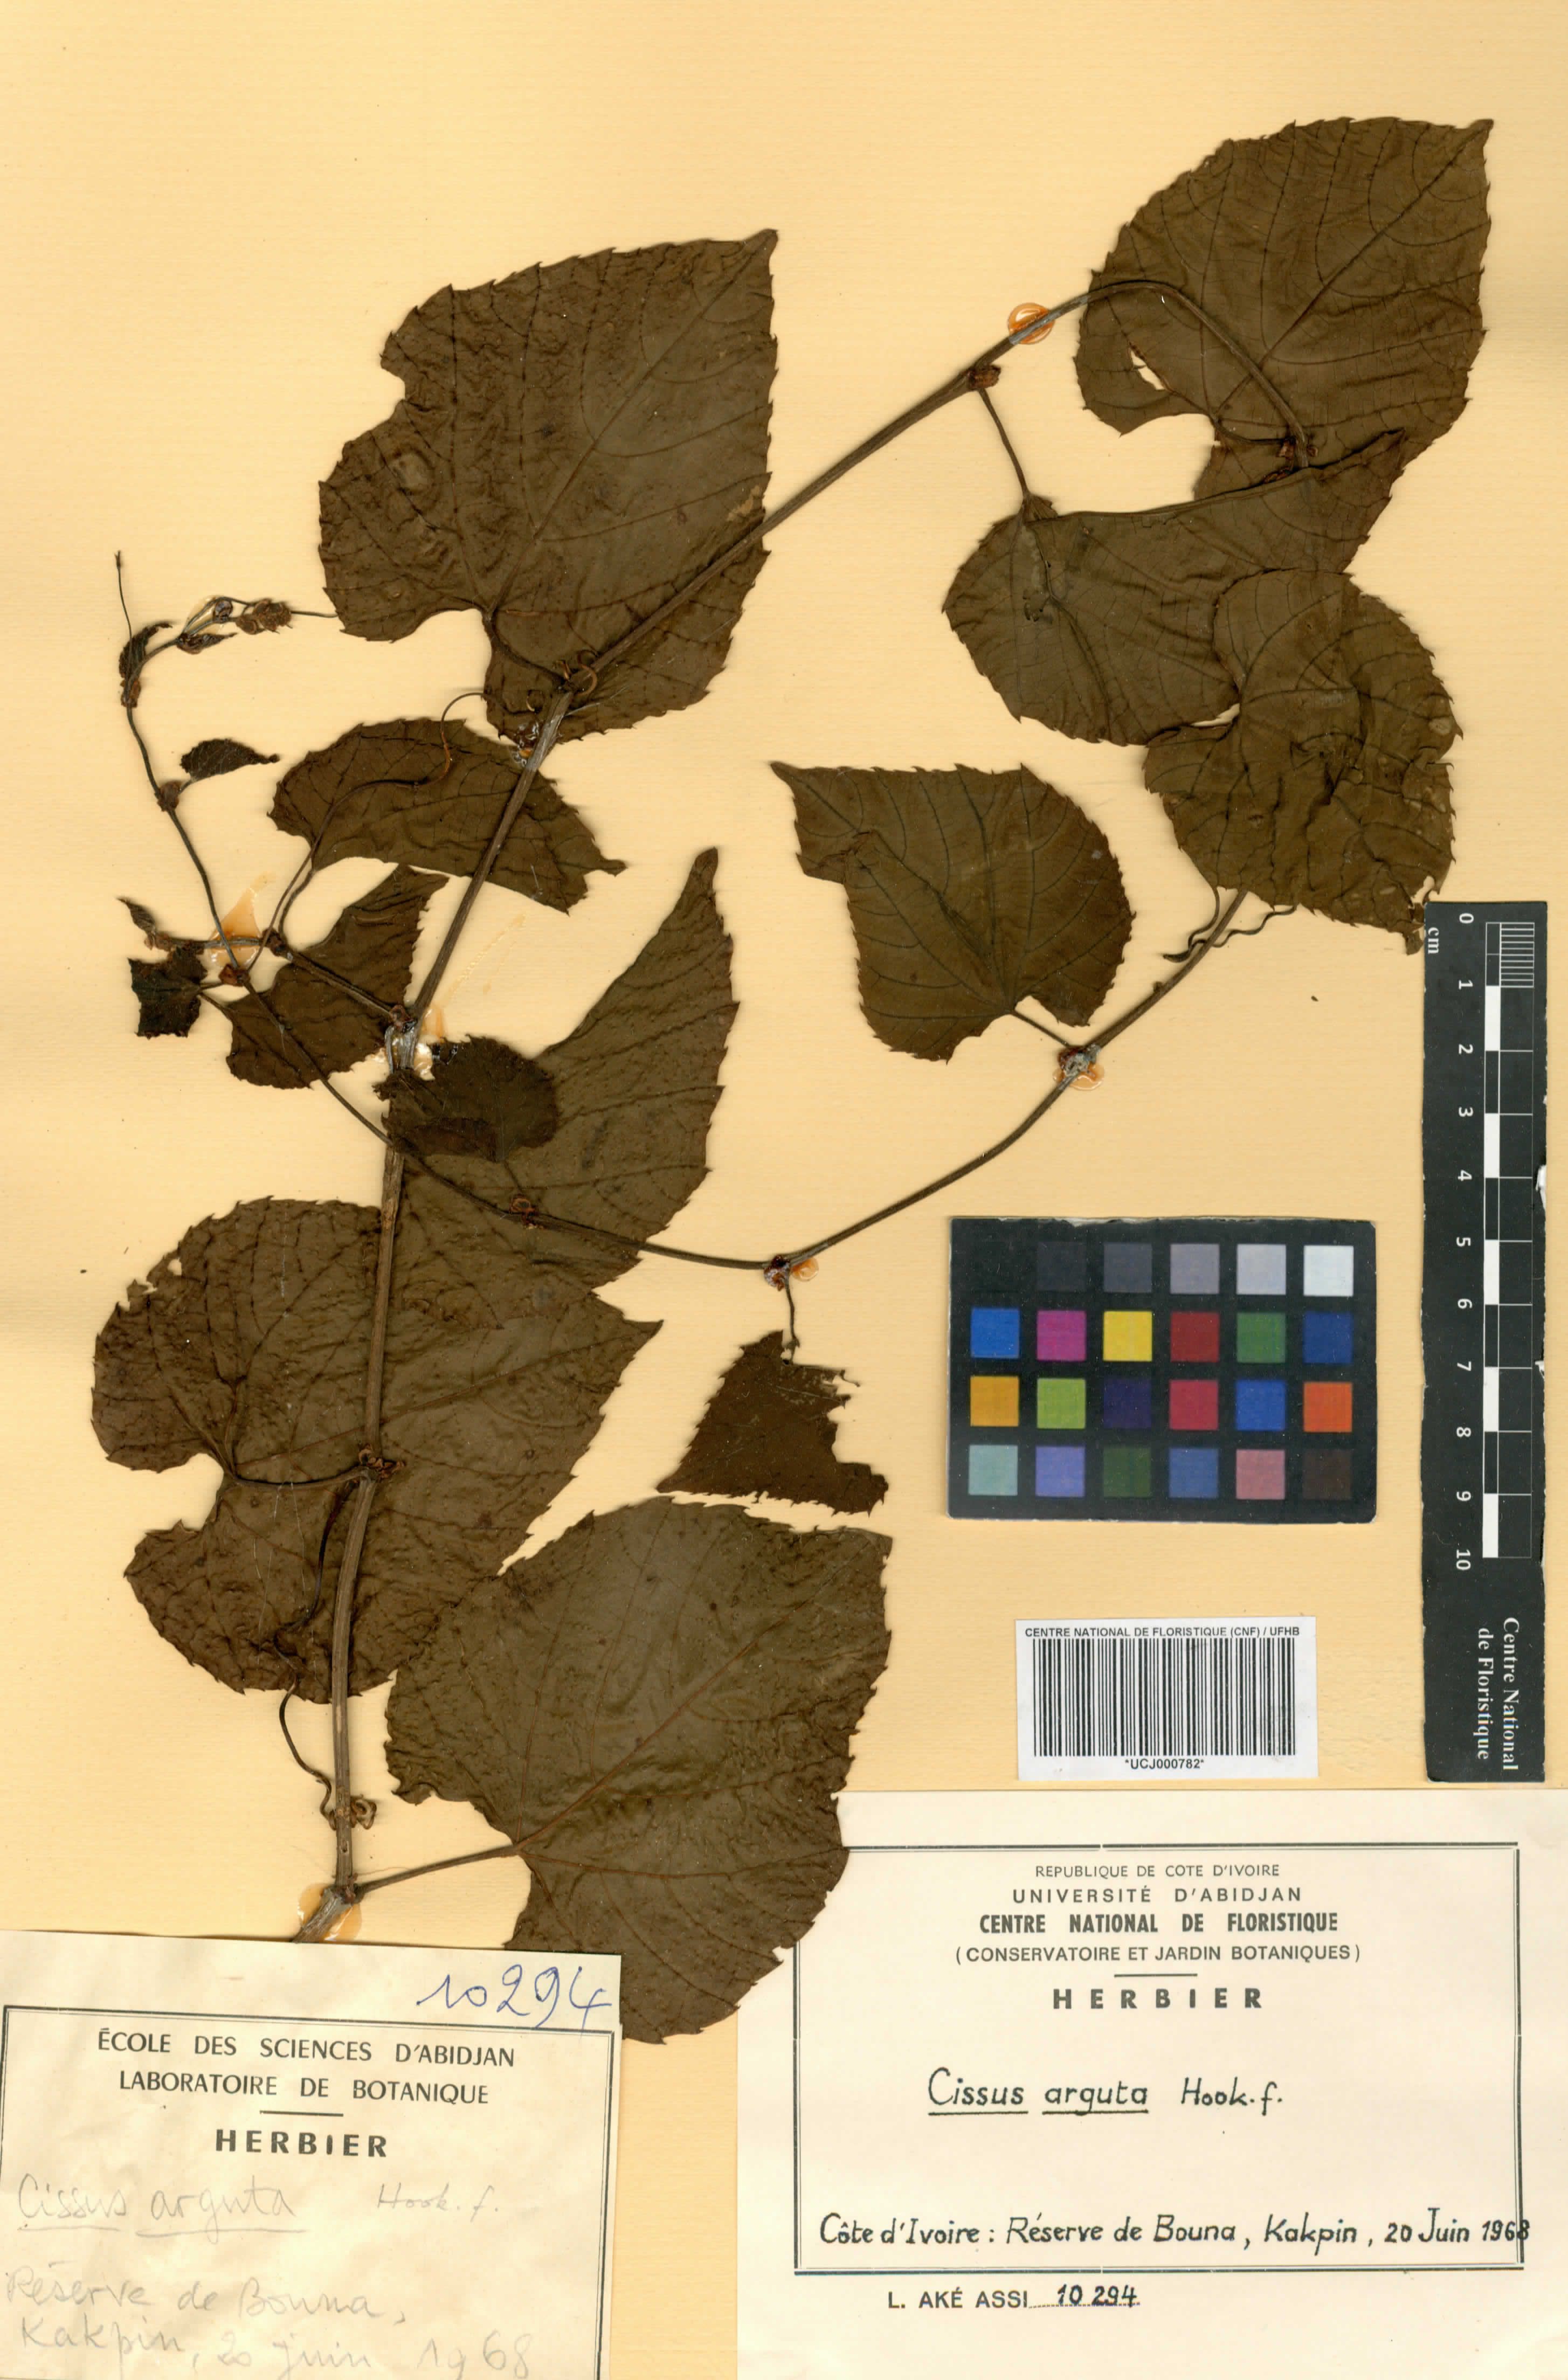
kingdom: Plantae
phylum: Tracheophyta
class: Magnoliopsida
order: Vitales
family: Vitaceae
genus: Cissus
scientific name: Cissus arguta
